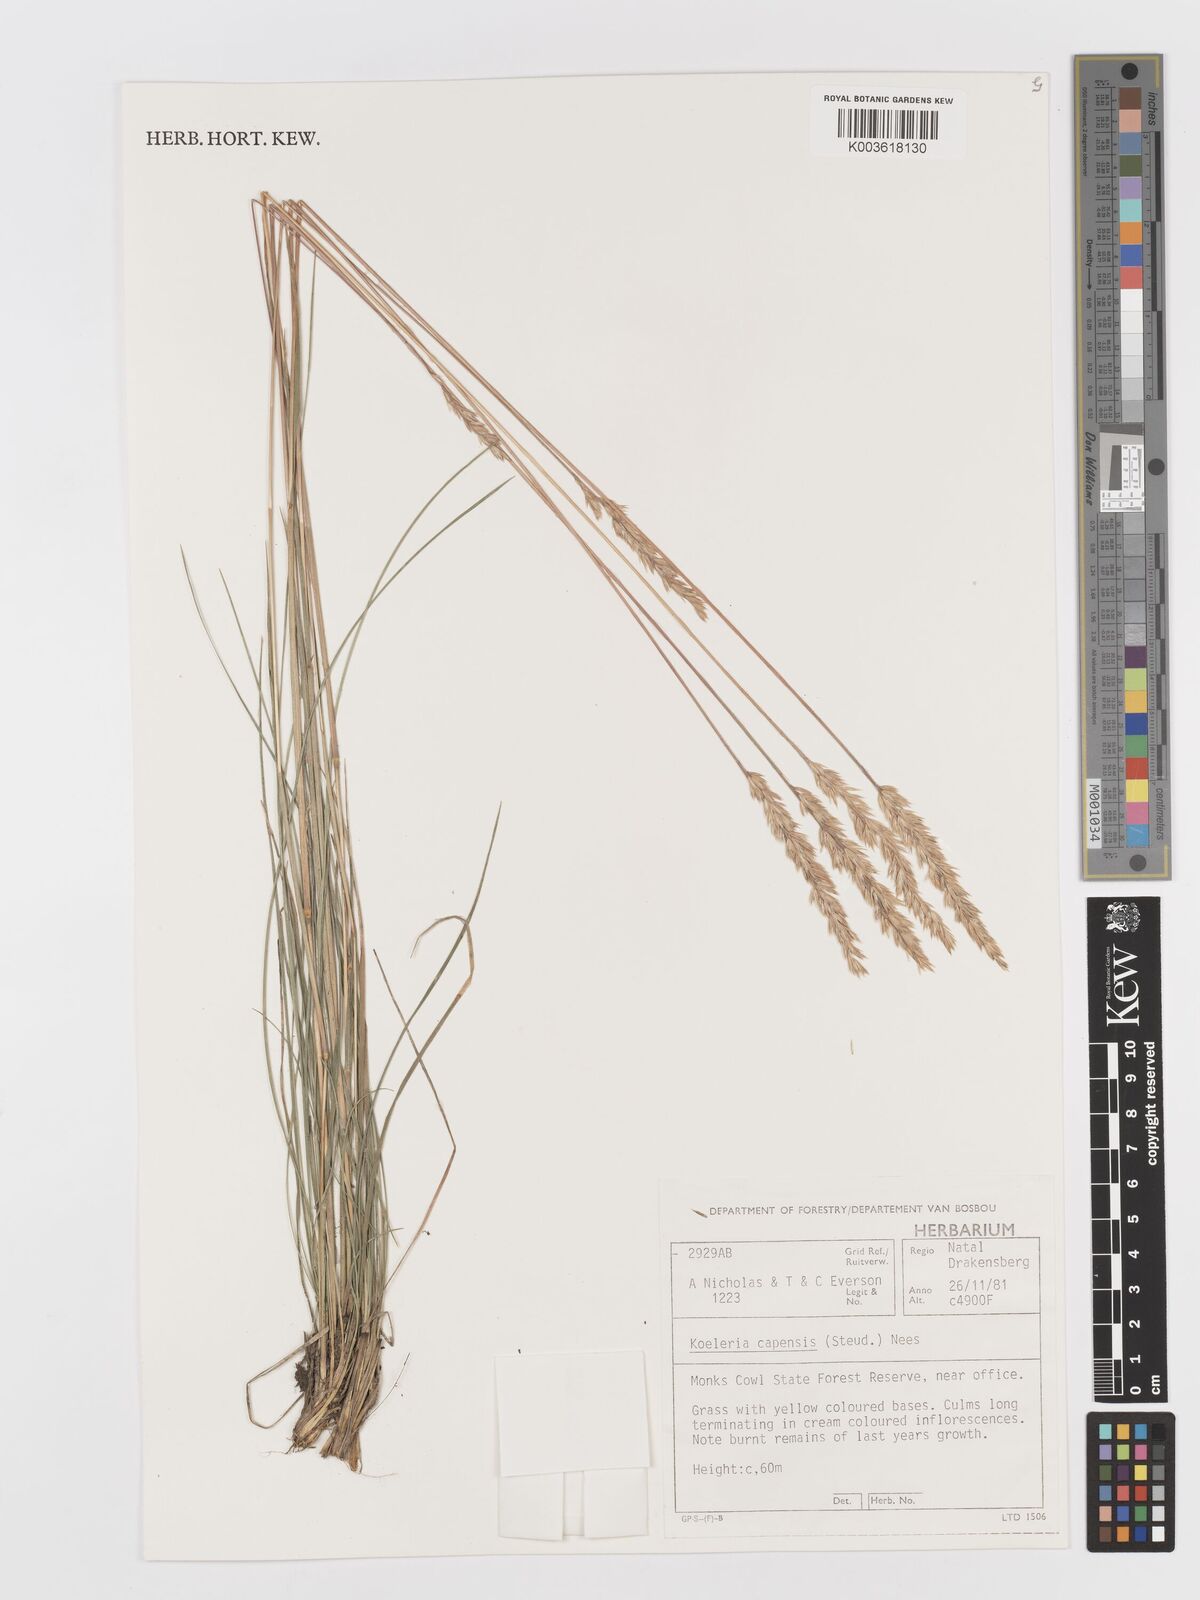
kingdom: Plantae
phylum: Tracheophyta
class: Liliopsida
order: Poales
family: Poaceae
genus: Koeleria
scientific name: Koeleria capensis
